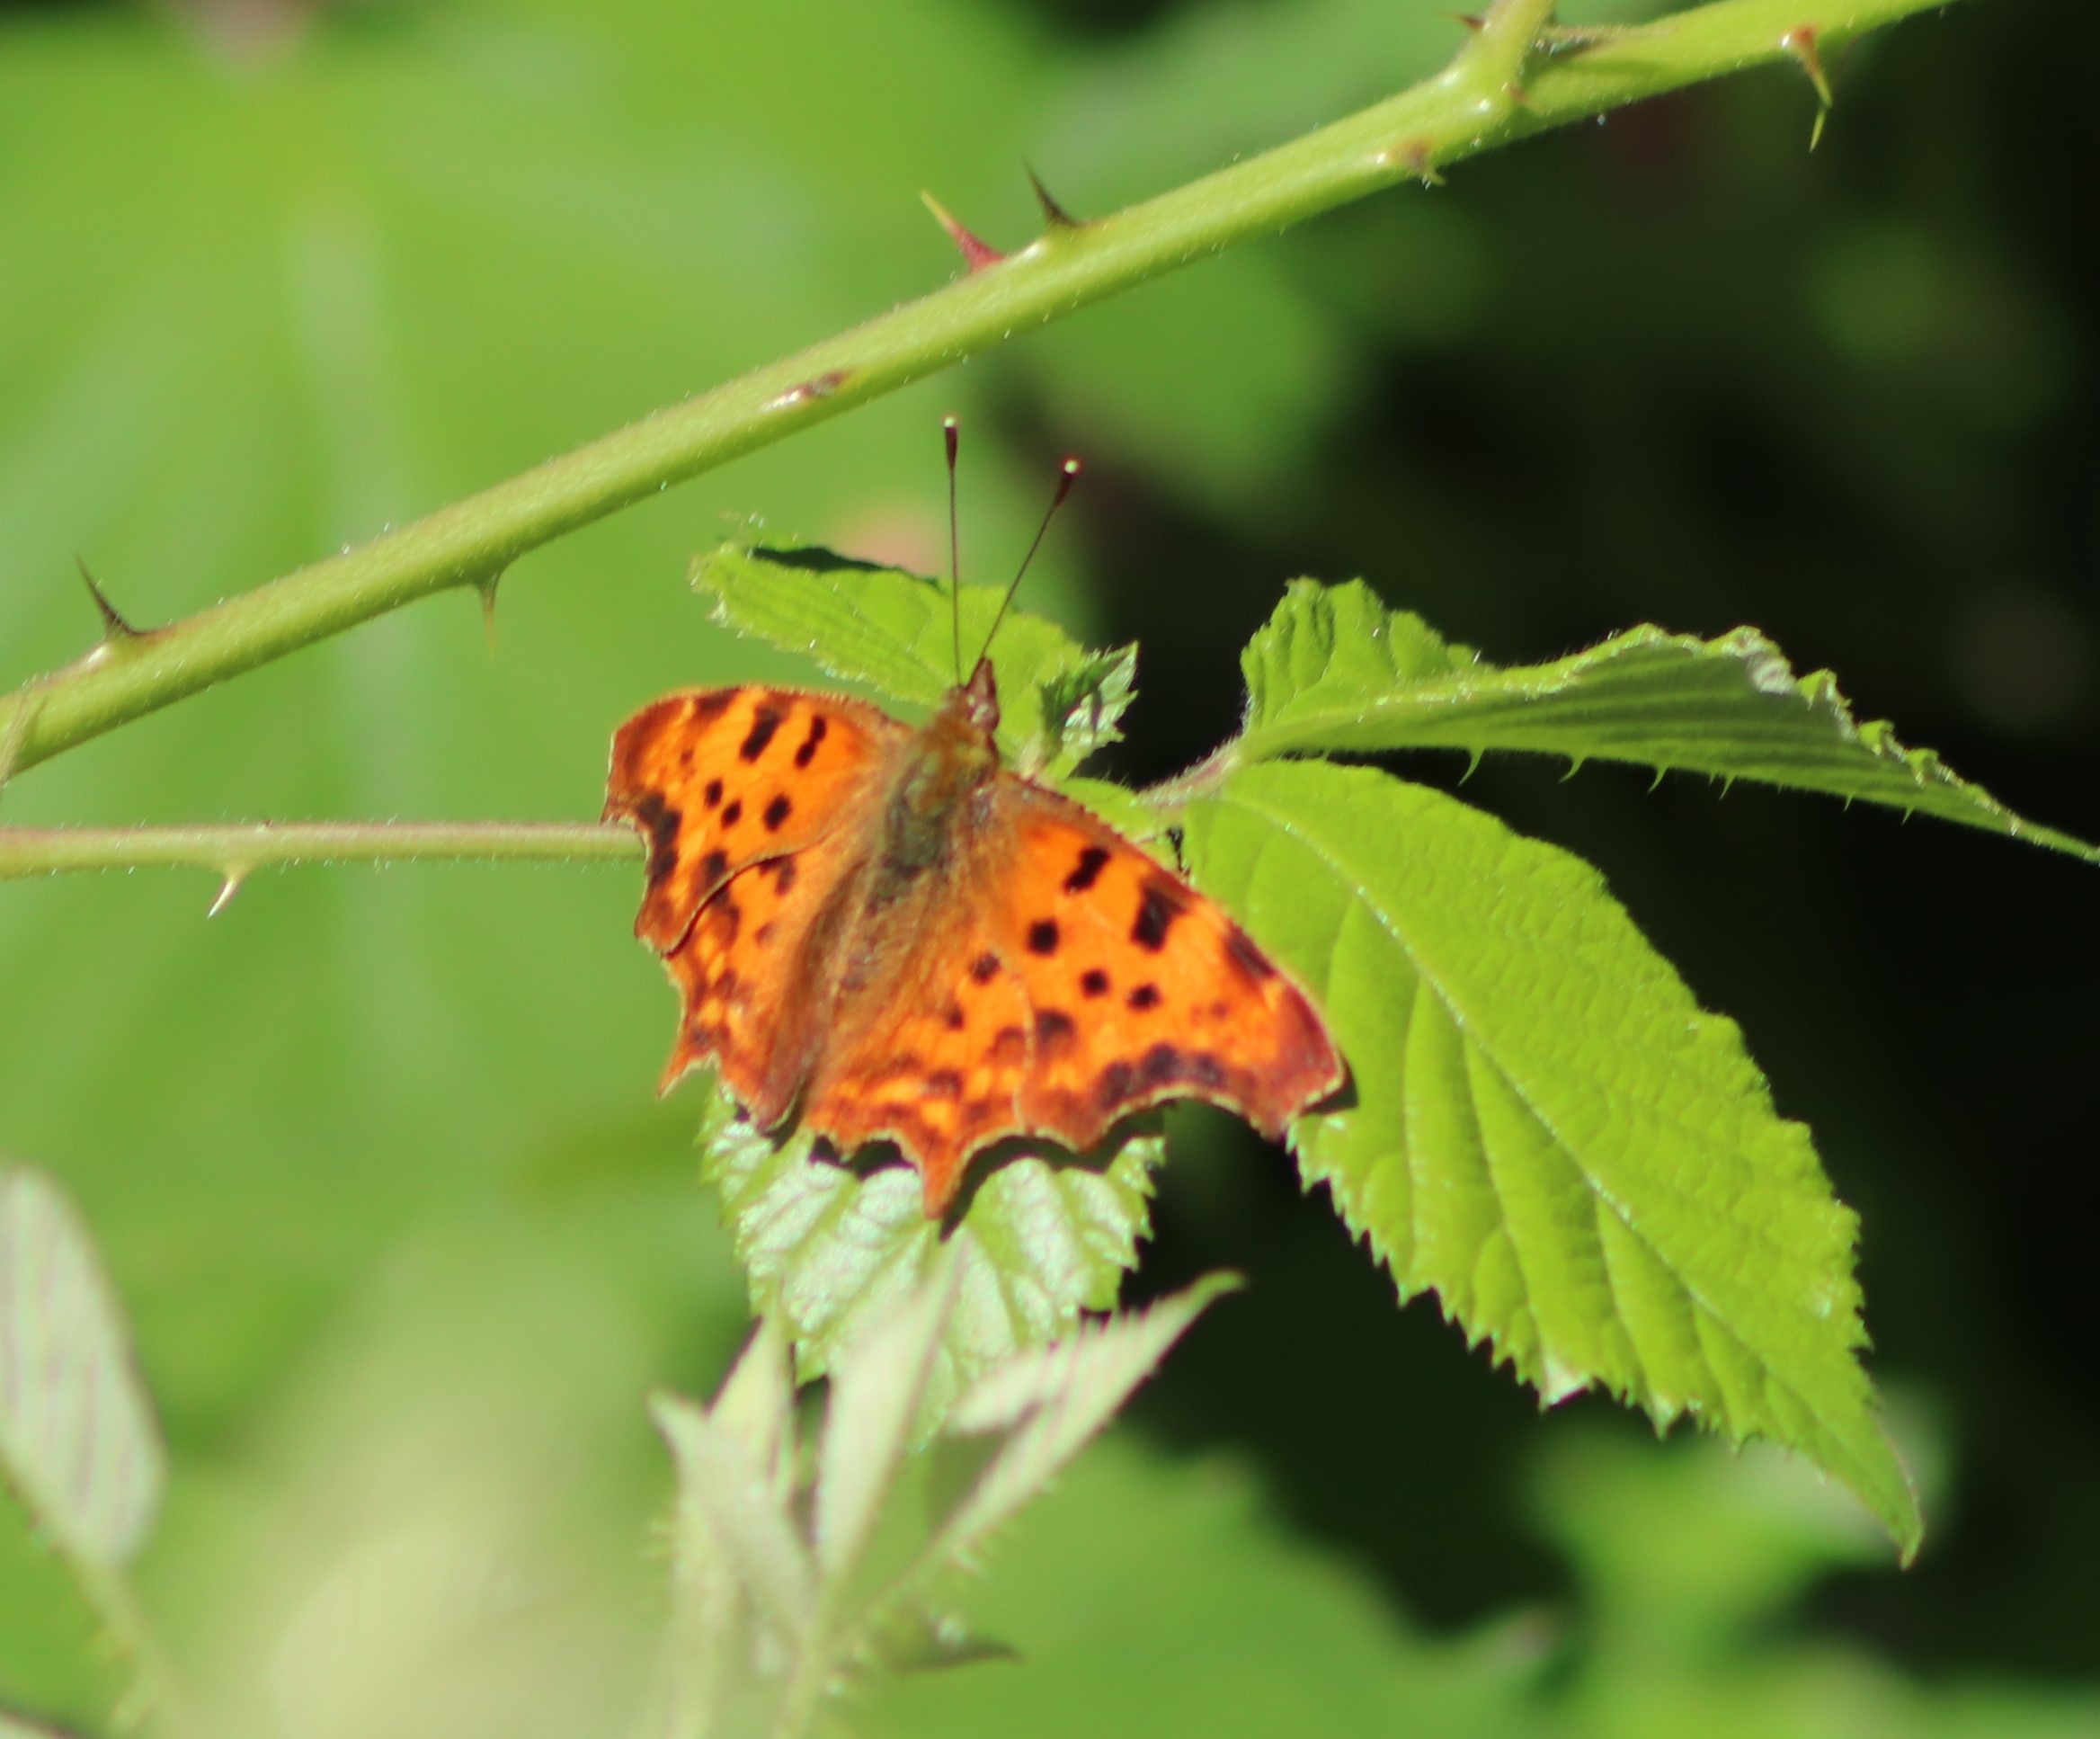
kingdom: Animalia
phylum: Arthropoda
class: Insecta
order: Lepidoptera
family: Nymphalidae
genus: Polygonia
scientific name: Polygonia c-album
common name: Det hvide C
